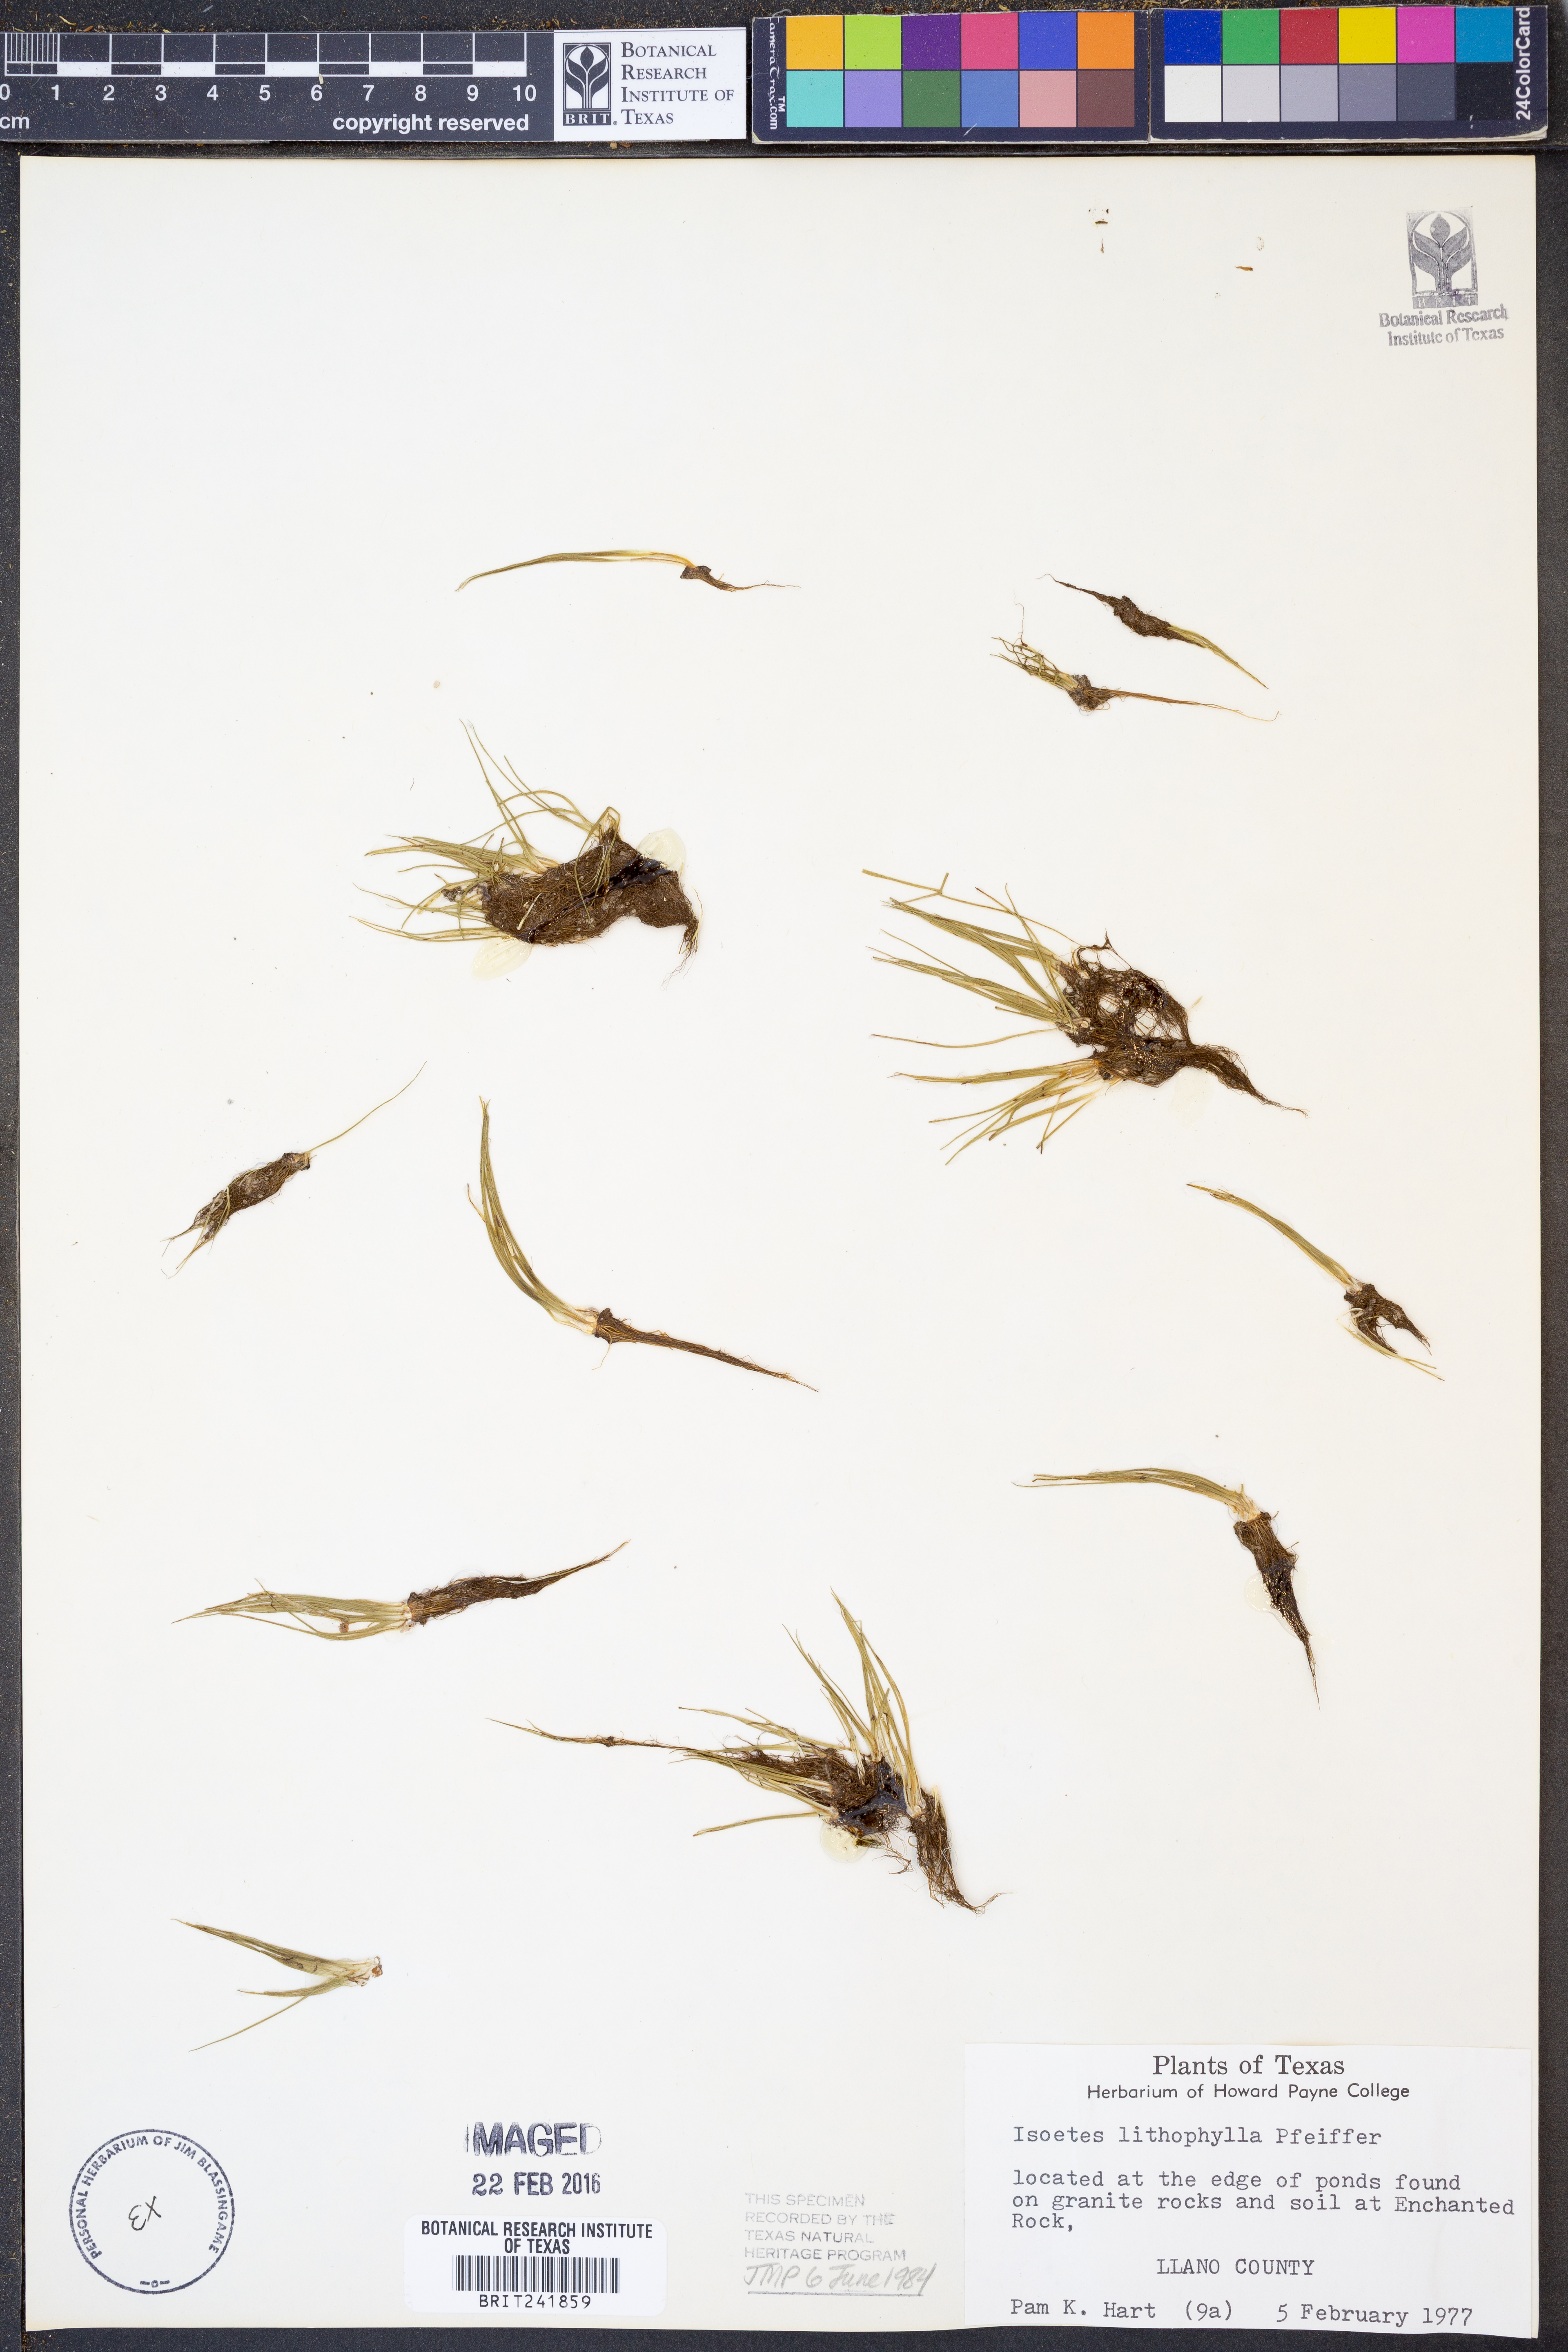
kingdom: Plantae
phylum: Tracheophyta
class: Lycopodiopsida
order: Isoetales
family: Isoetaceae
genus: Isoetes
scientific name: Isoetes lithophila
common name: Rock quillwort
